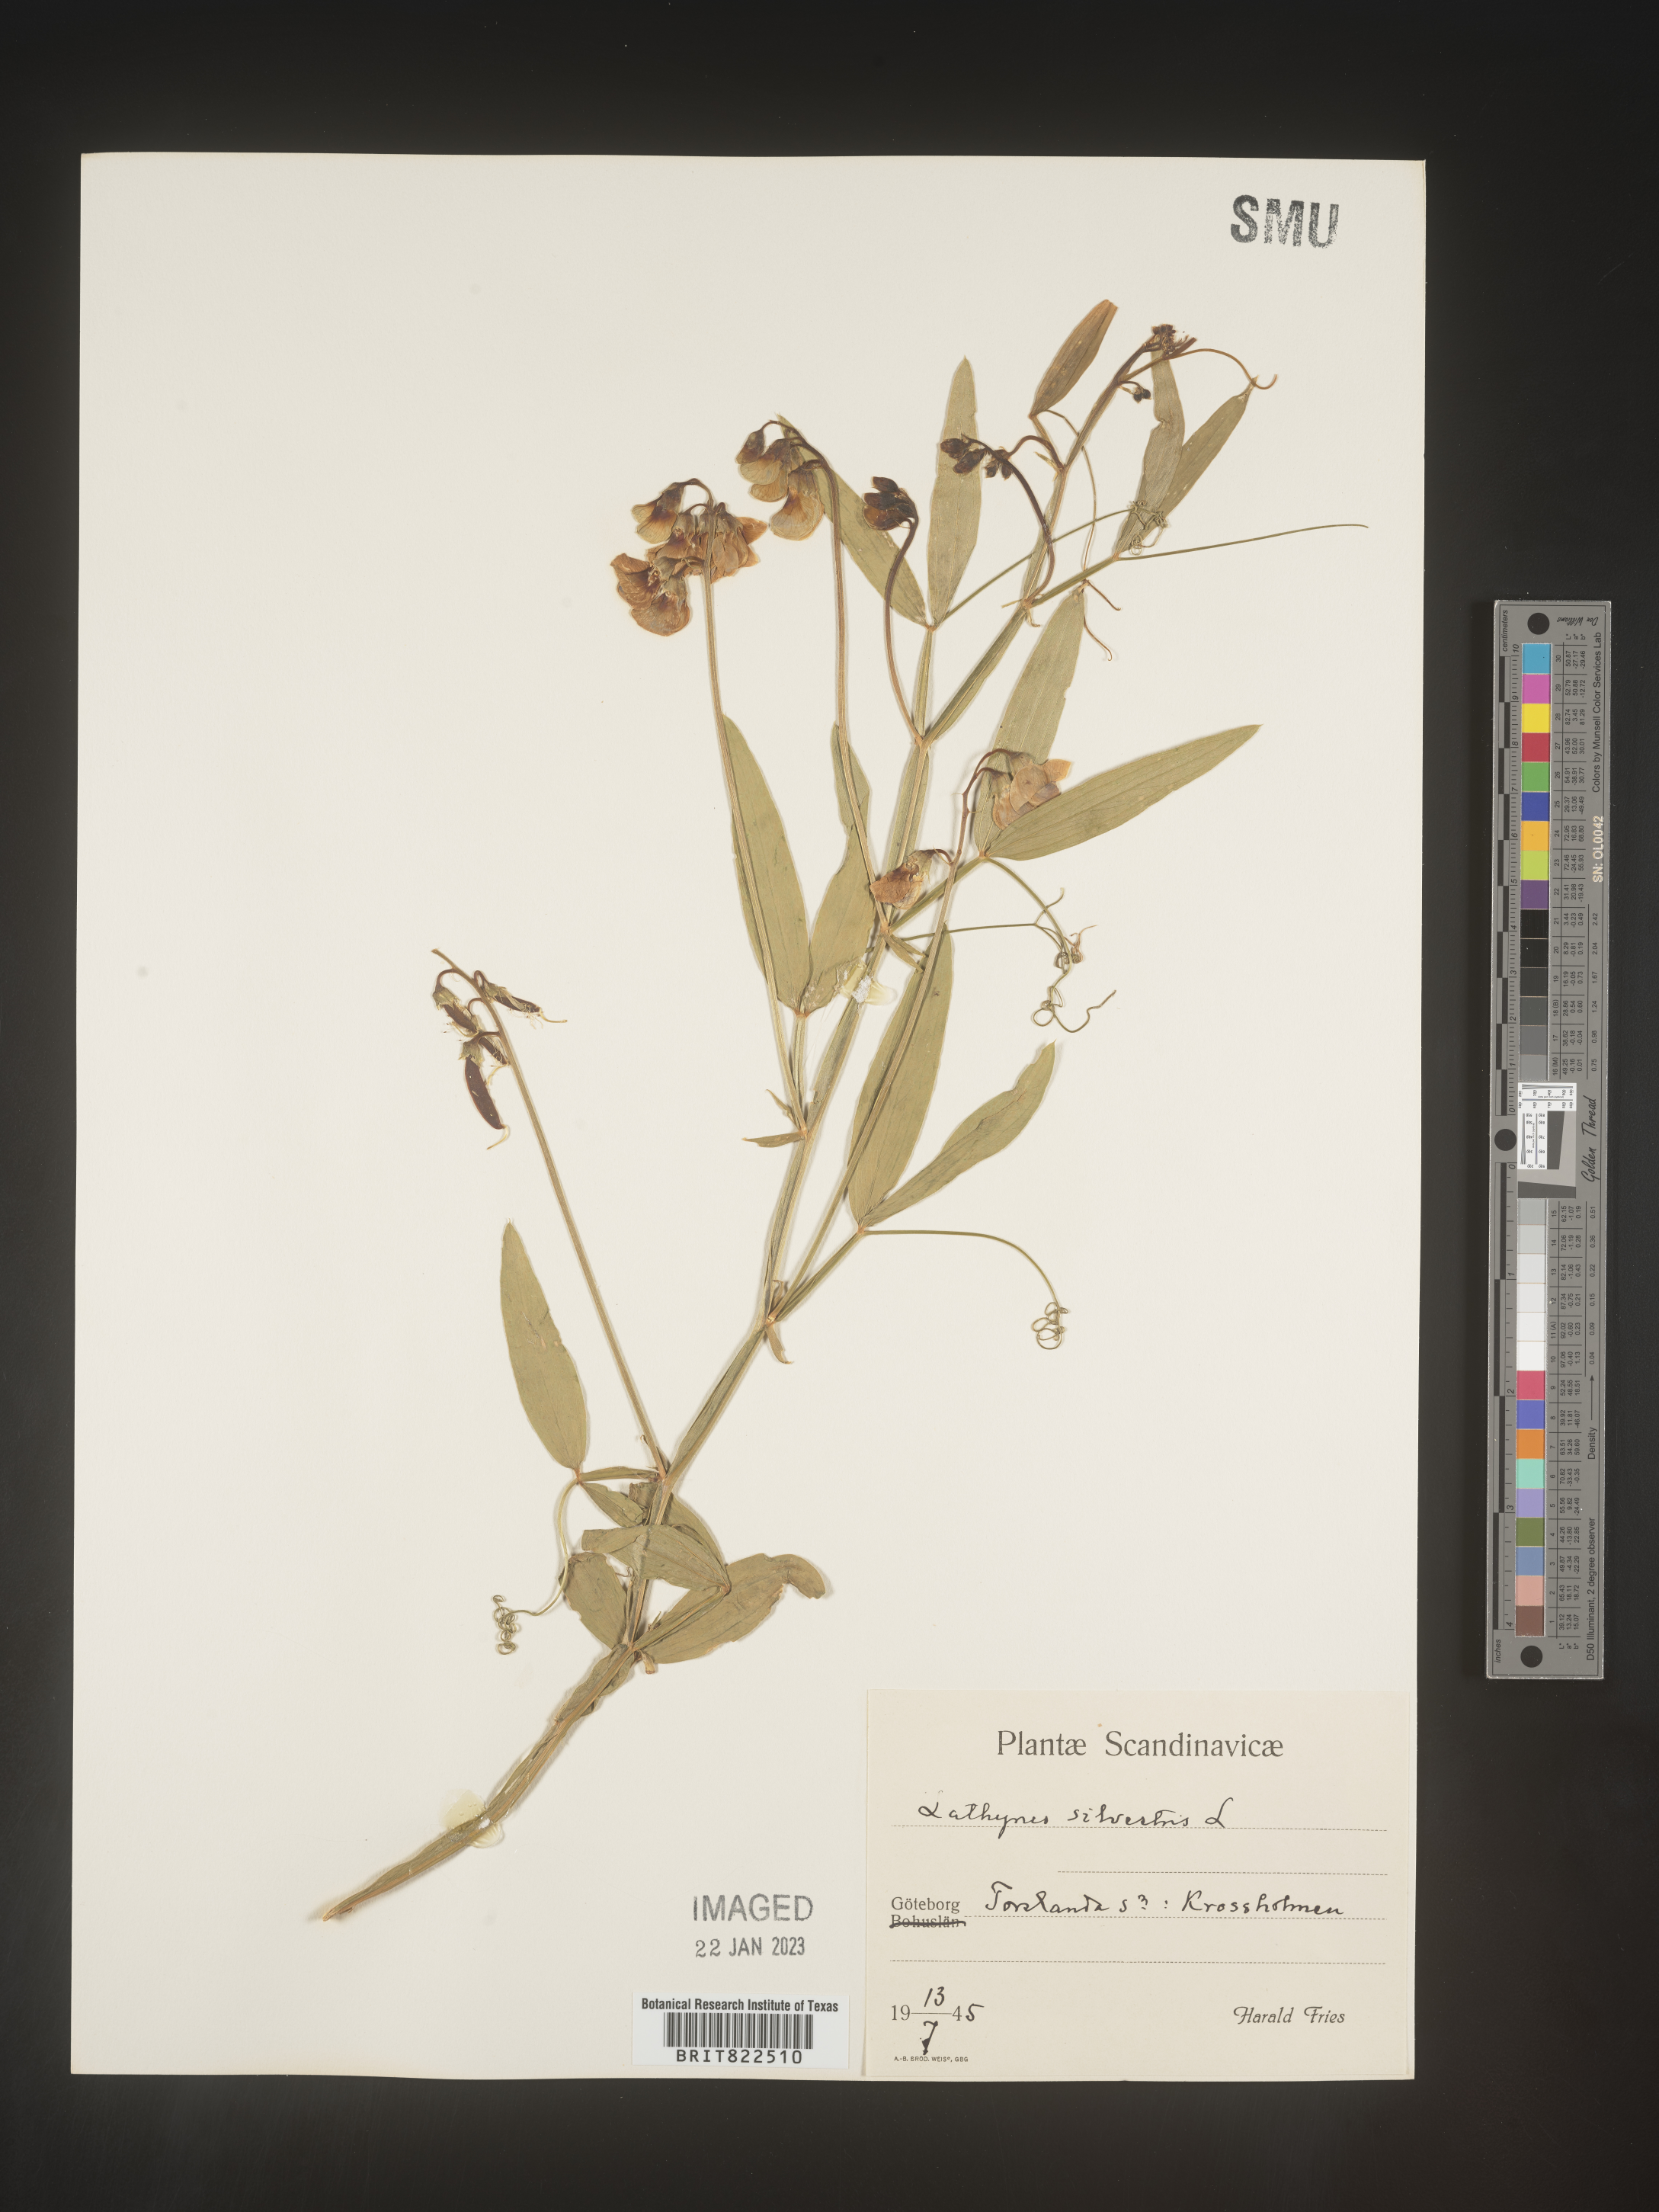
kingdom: Plantae
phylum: Tracheophyta
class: Magnoliopsida
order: Fabales
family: Fabaceae
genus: Lathyrus
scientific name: Lathyrus
